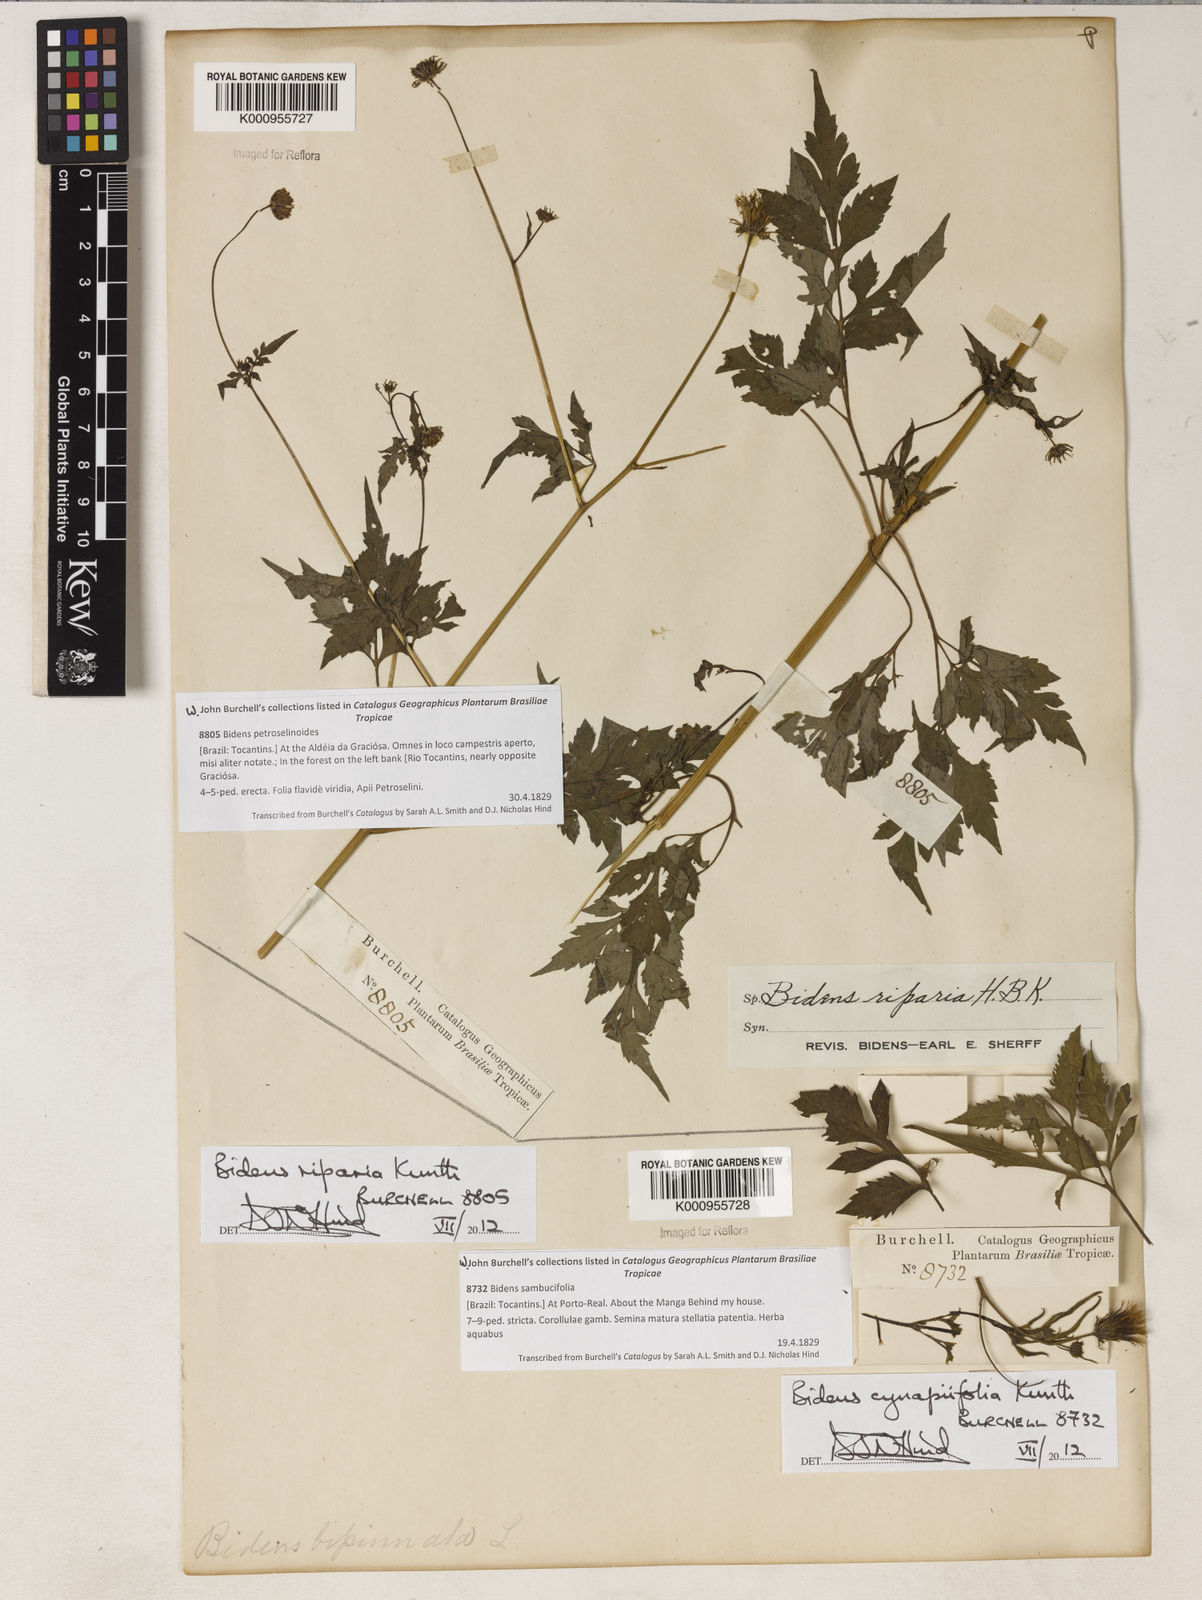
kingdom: Plantae
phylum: Tracheophyta
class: Magnoliopsida
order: Asterales
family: Asteraceae
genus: Bidens
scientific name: Bidens
